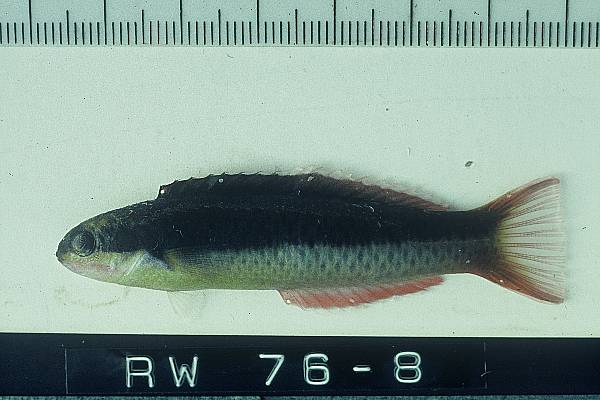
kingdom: Animalia
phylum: Chordata
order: Perciformes
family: Labridae
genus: Thalassoma
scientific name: Thalassoma amblycephalum
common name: Bluehead wrasse
